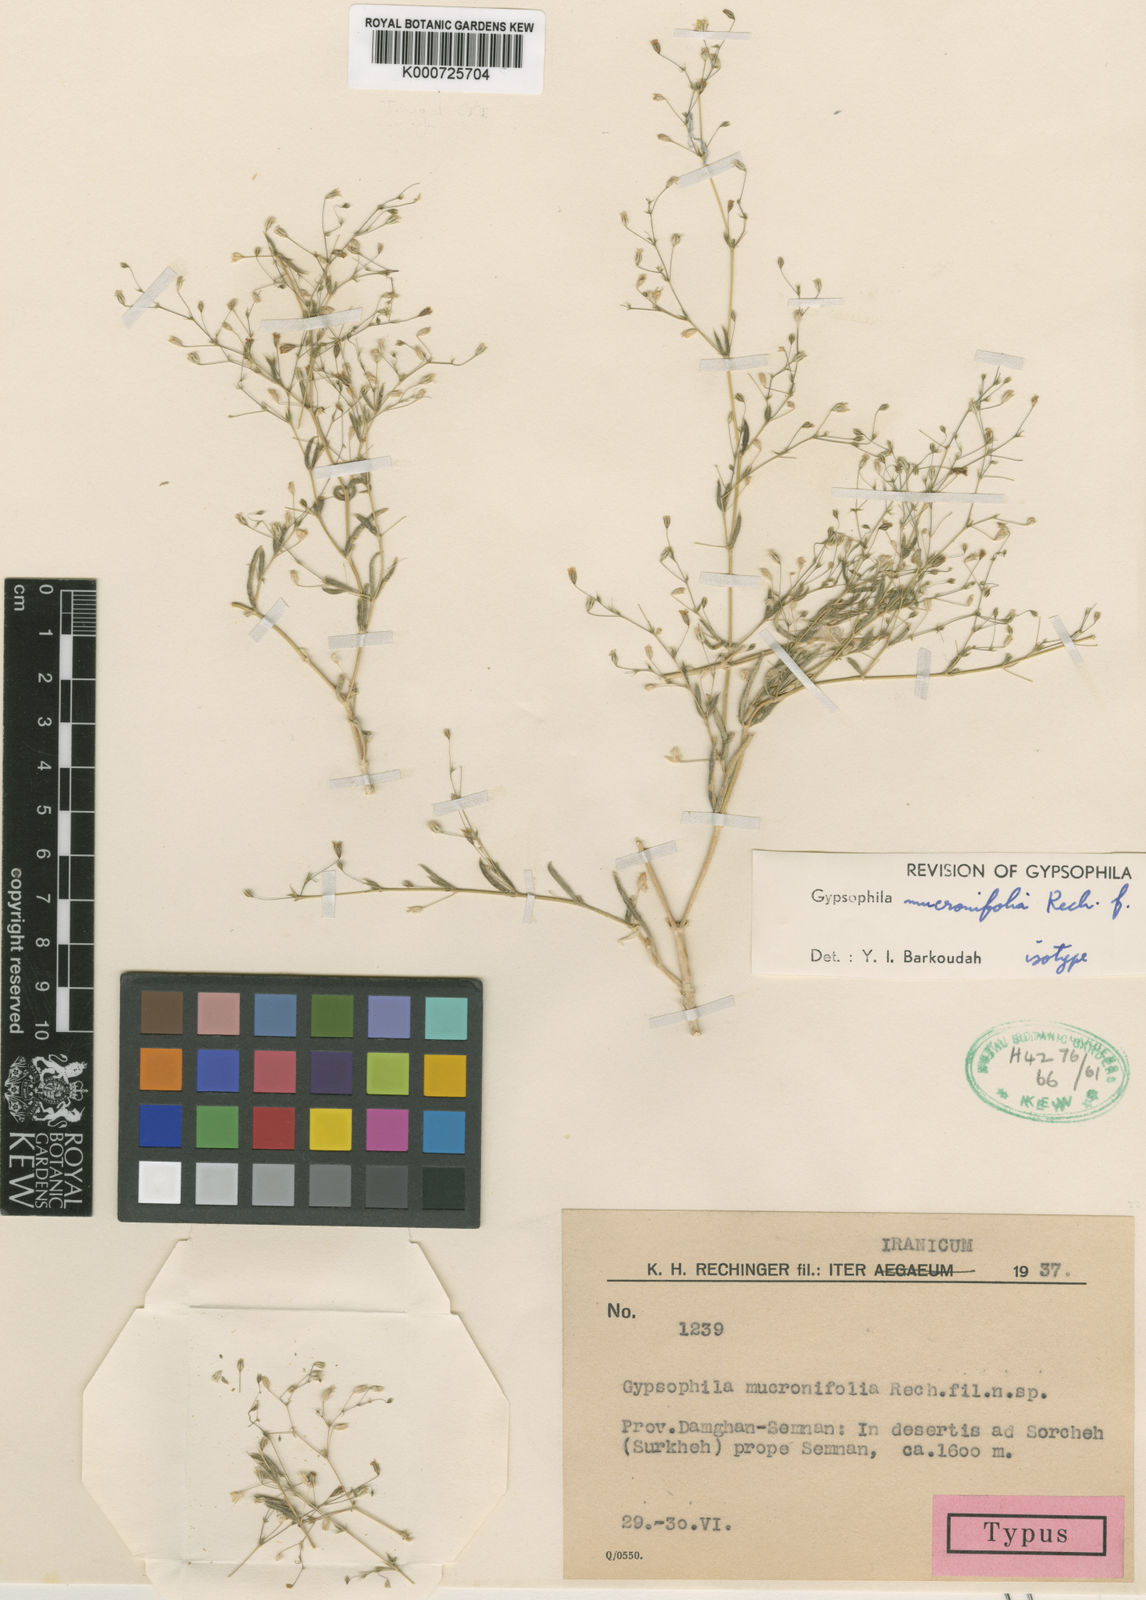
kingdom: Plantae
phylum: Tracheophyta
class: Magnoliopsida
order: Caryophyllales
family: Caryophyllaceae
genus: Gypsophila
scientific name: Gypsophila mucronifolia
